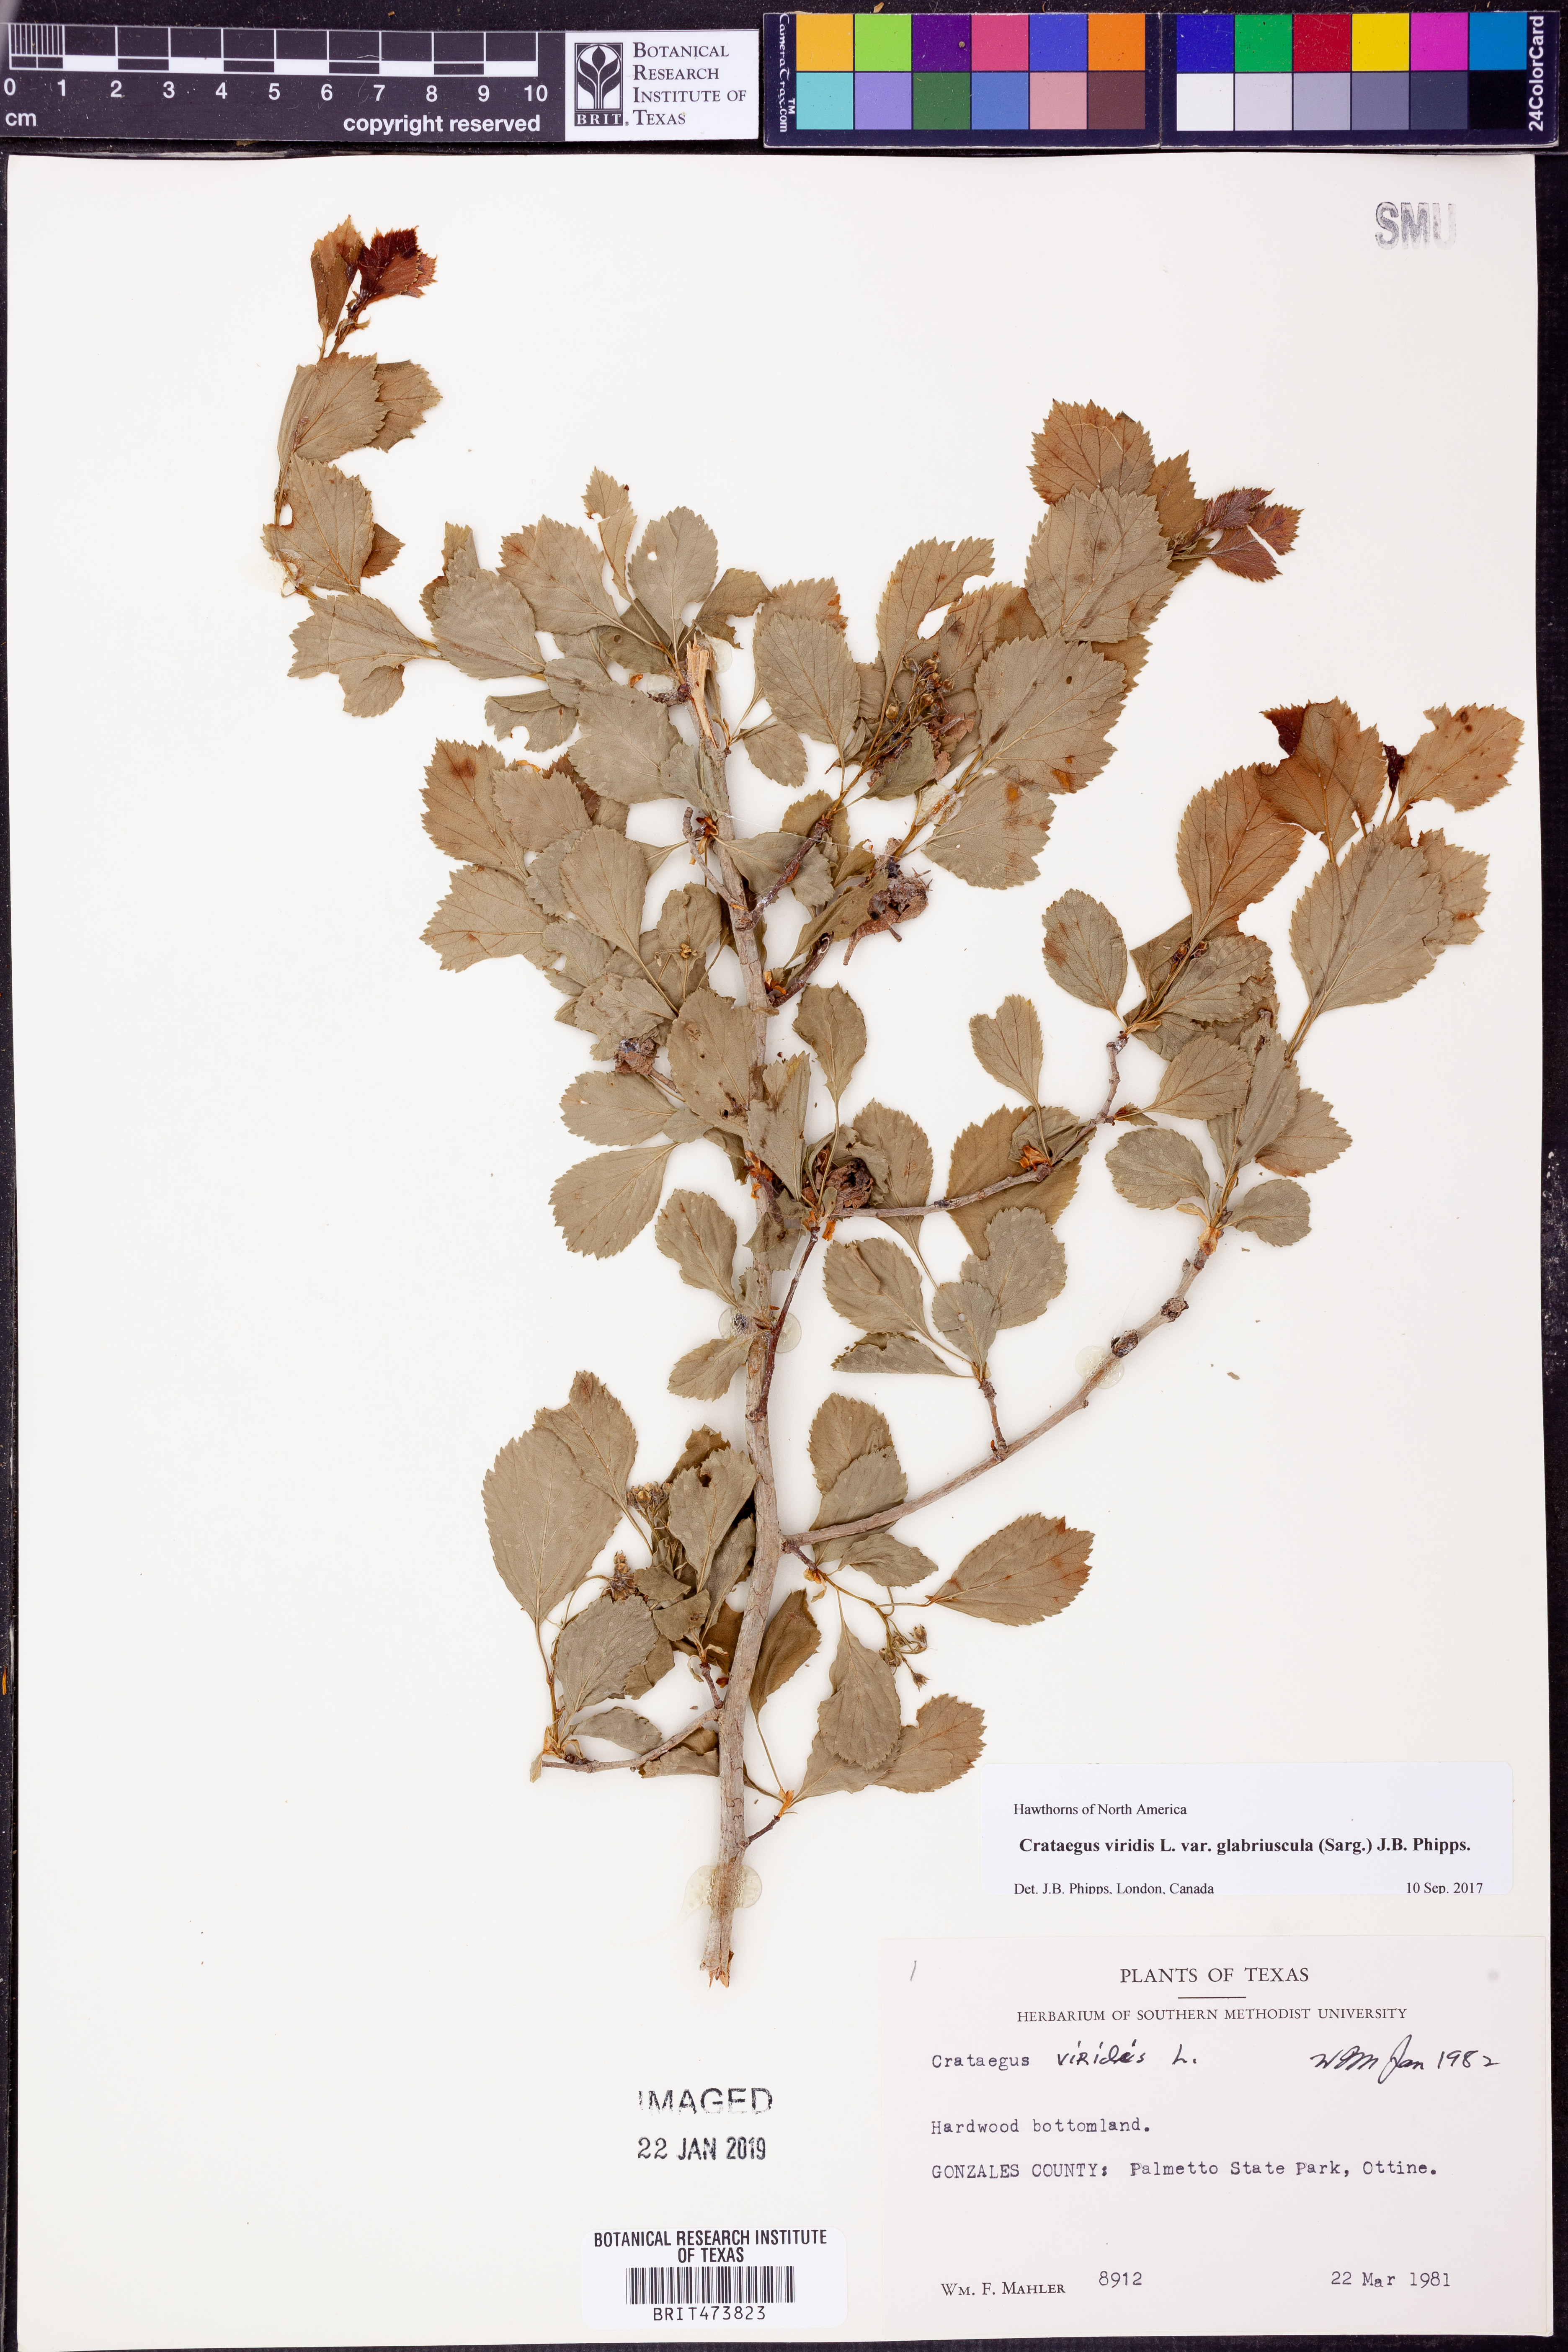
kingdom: Plantae
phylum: Tracheophyta
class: Magnoliopsida
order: Rosales
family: Rosaceae
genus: Crataegus
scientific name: Crataegus viridis
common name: Southernthorn
